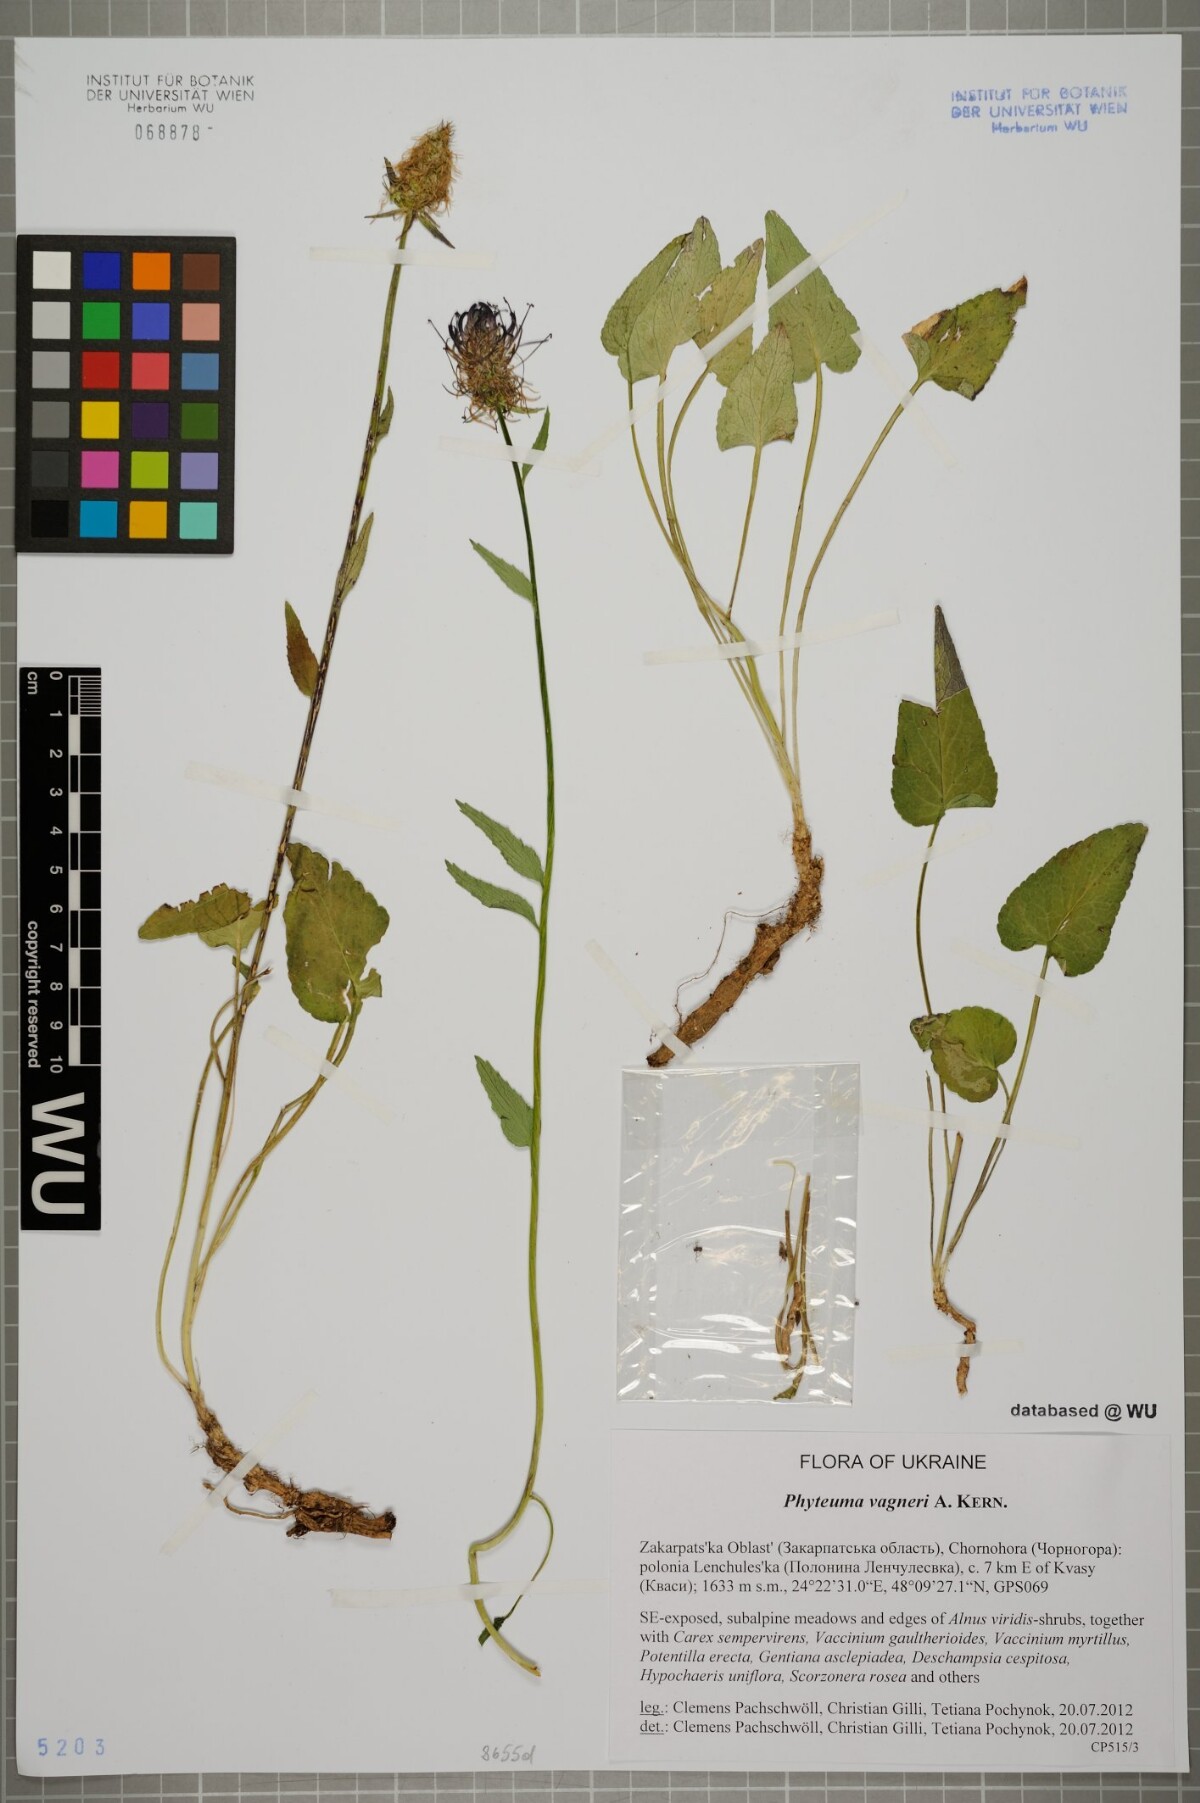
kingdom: Plantae
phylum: Tracheophyta
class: Magnoliopsida
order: Asterales
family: Campanulaceae
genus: Phyteuma
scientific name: Phyteuma vagneri
